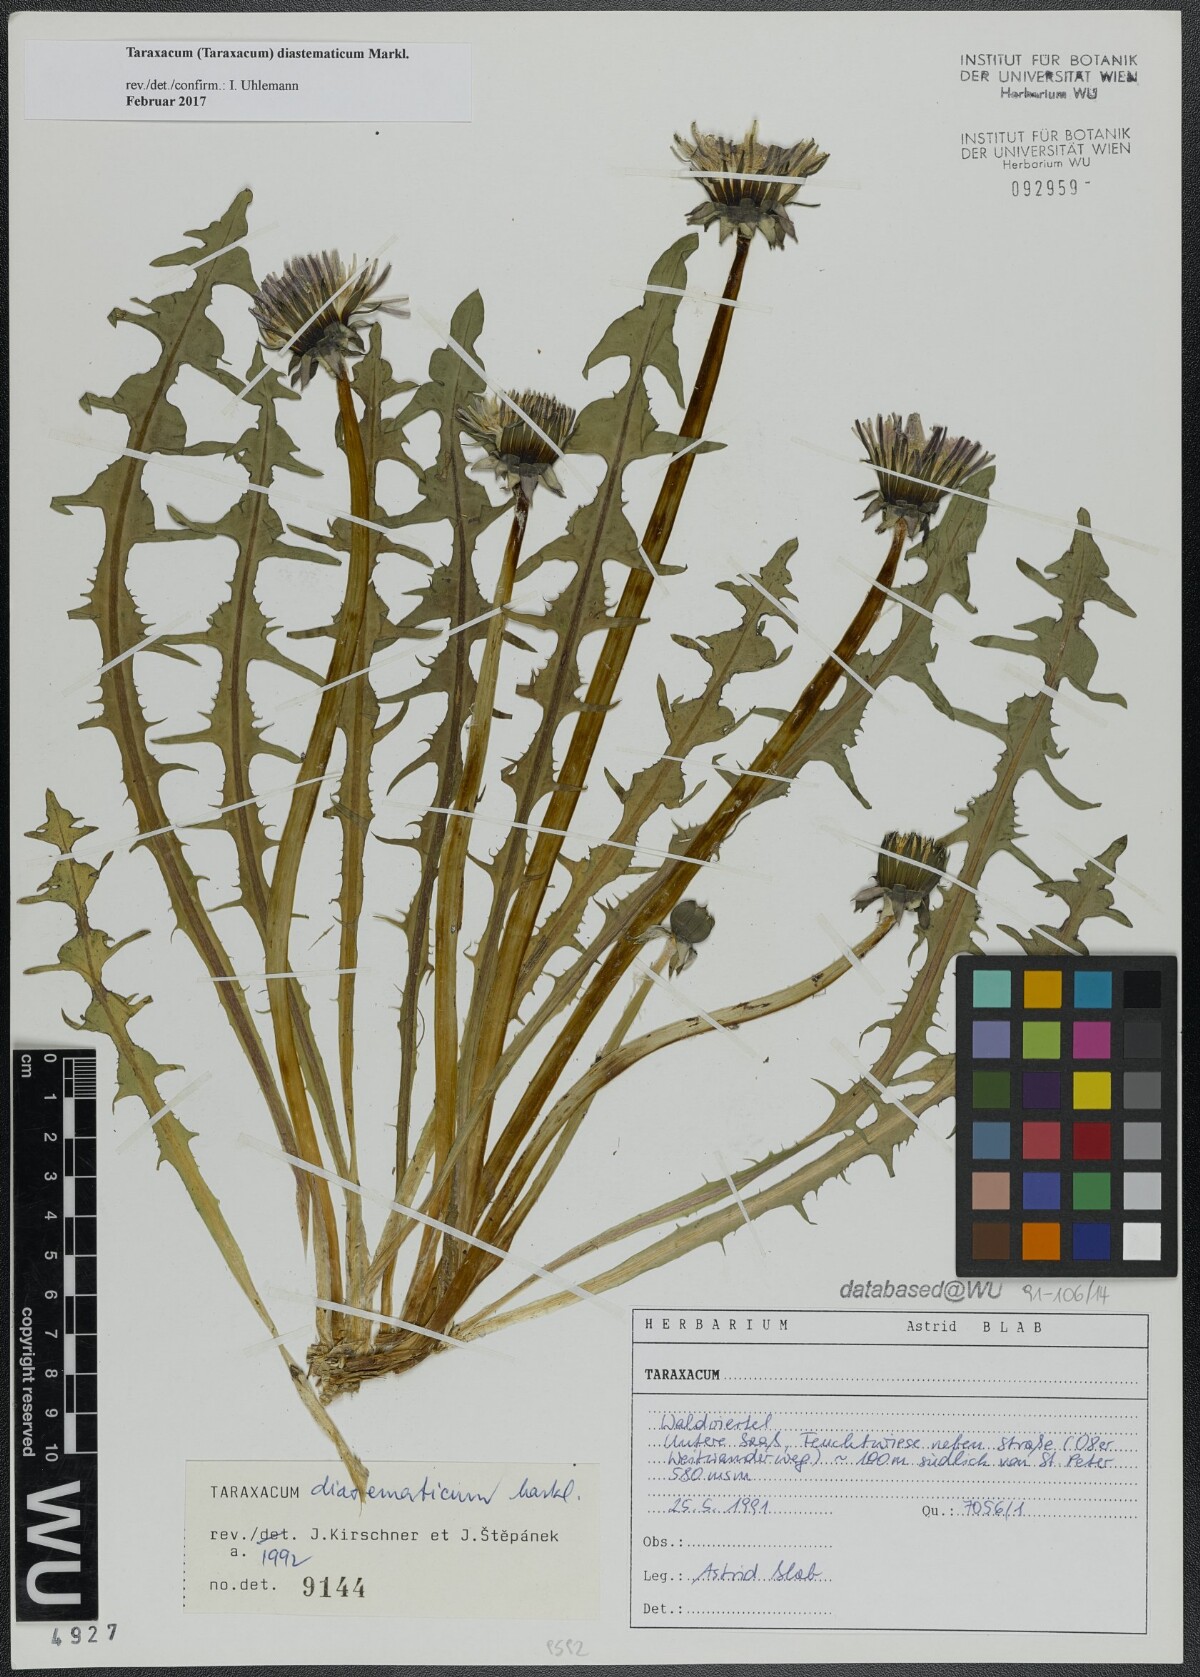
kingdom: Plantae
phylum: Tracheophyta
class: Magnoliopsida
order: Asterales
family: Asteraceae
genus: Taraxacum
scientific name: Taraxacum diastematicum
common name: Bulbous-lobed dandelion
